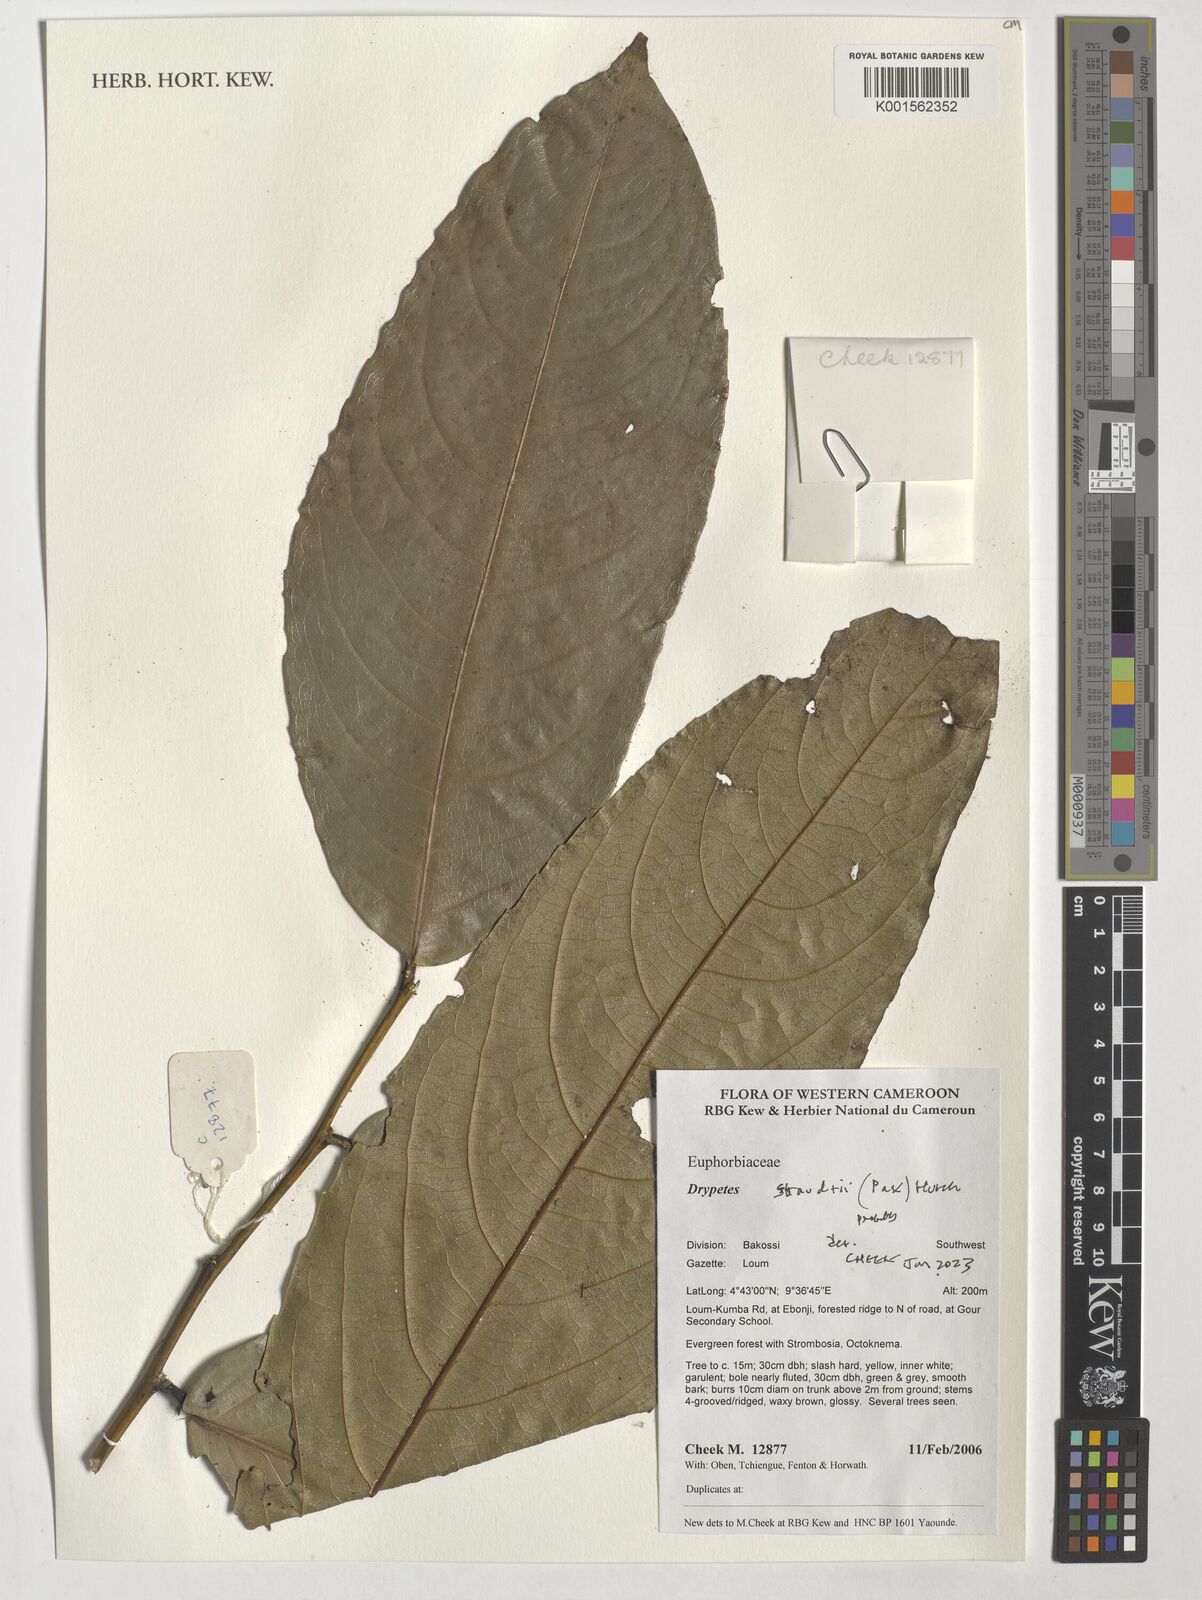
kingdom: Plantae
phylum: Tracheophyta
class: Magnoliopsida
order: Malpighiales
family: Putranjivaceae
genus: Drypetes
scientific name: Drypetes staudtii
